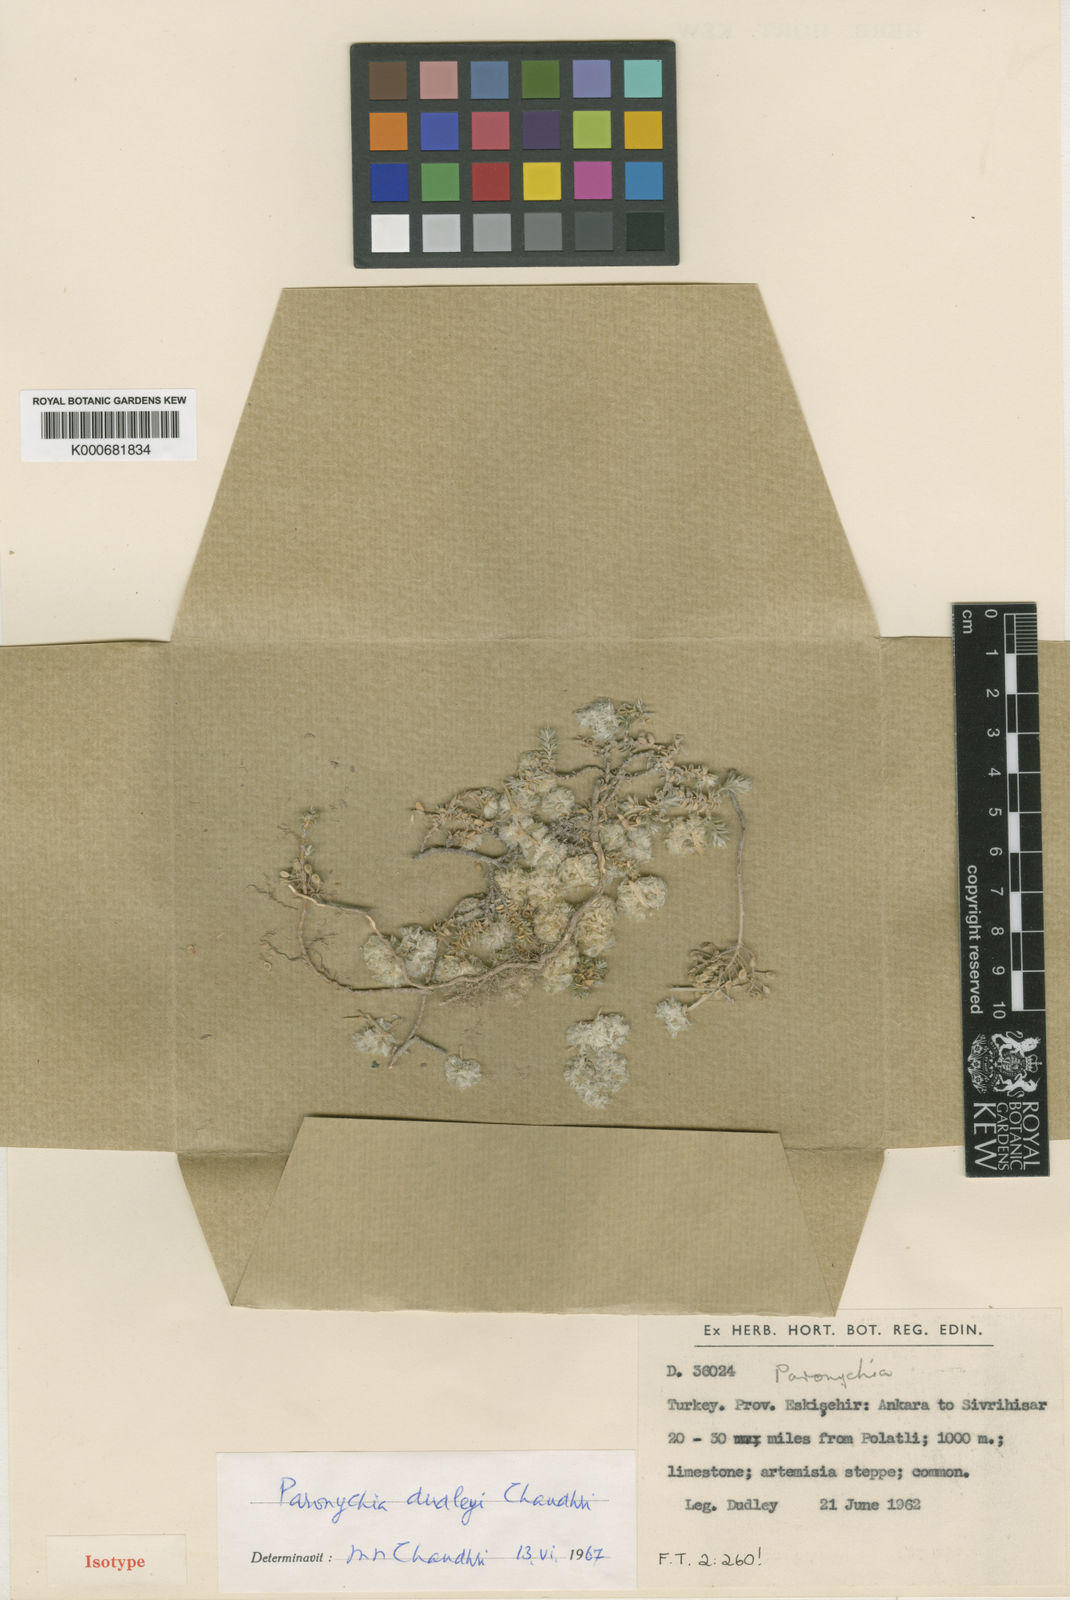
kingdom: Plantae
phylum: Tracheophyta
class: Magnoliopsida
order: Caryophyllales
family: Caryophyllaceae
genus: Paronychia
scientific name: Paronychia dudleyi
